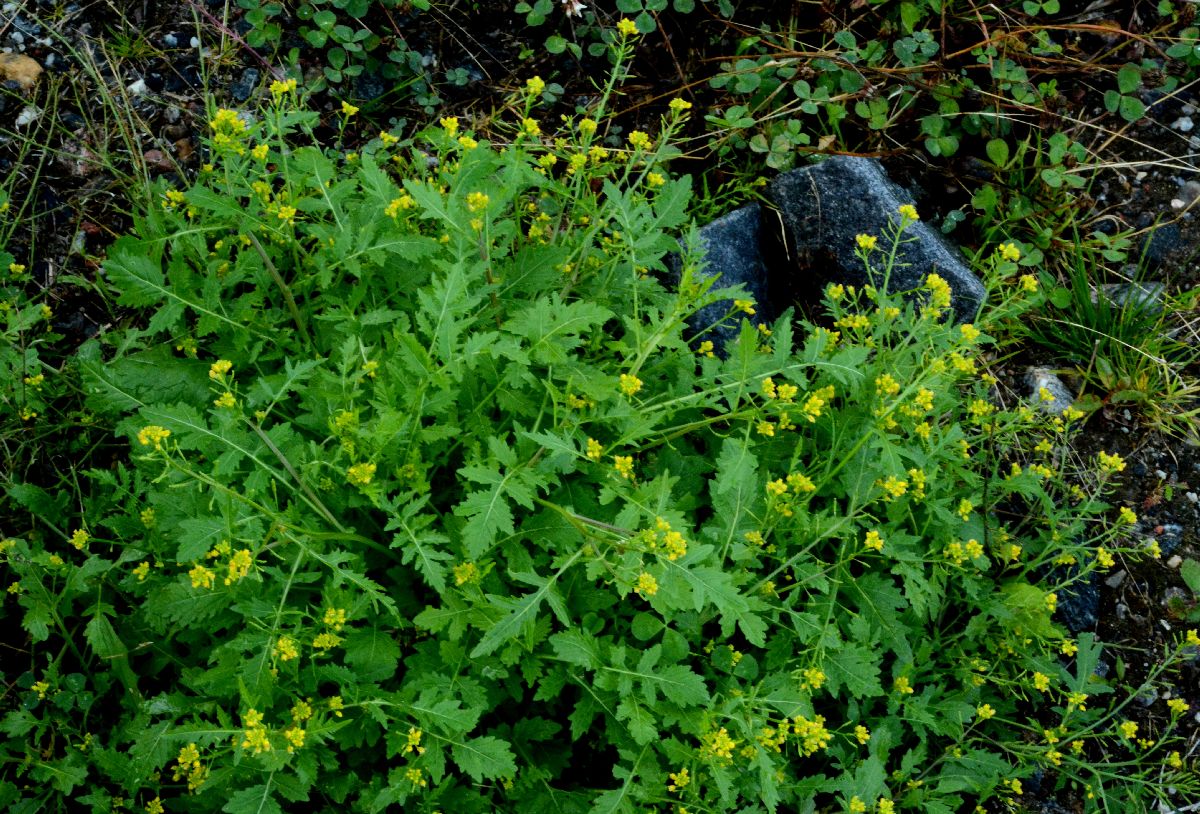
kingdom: Plantae
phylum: Tracheophyta
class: Magnoliopsida
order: Brassicales
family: Brassicaceae
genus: Rorippa
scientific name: Rorippa palustris
